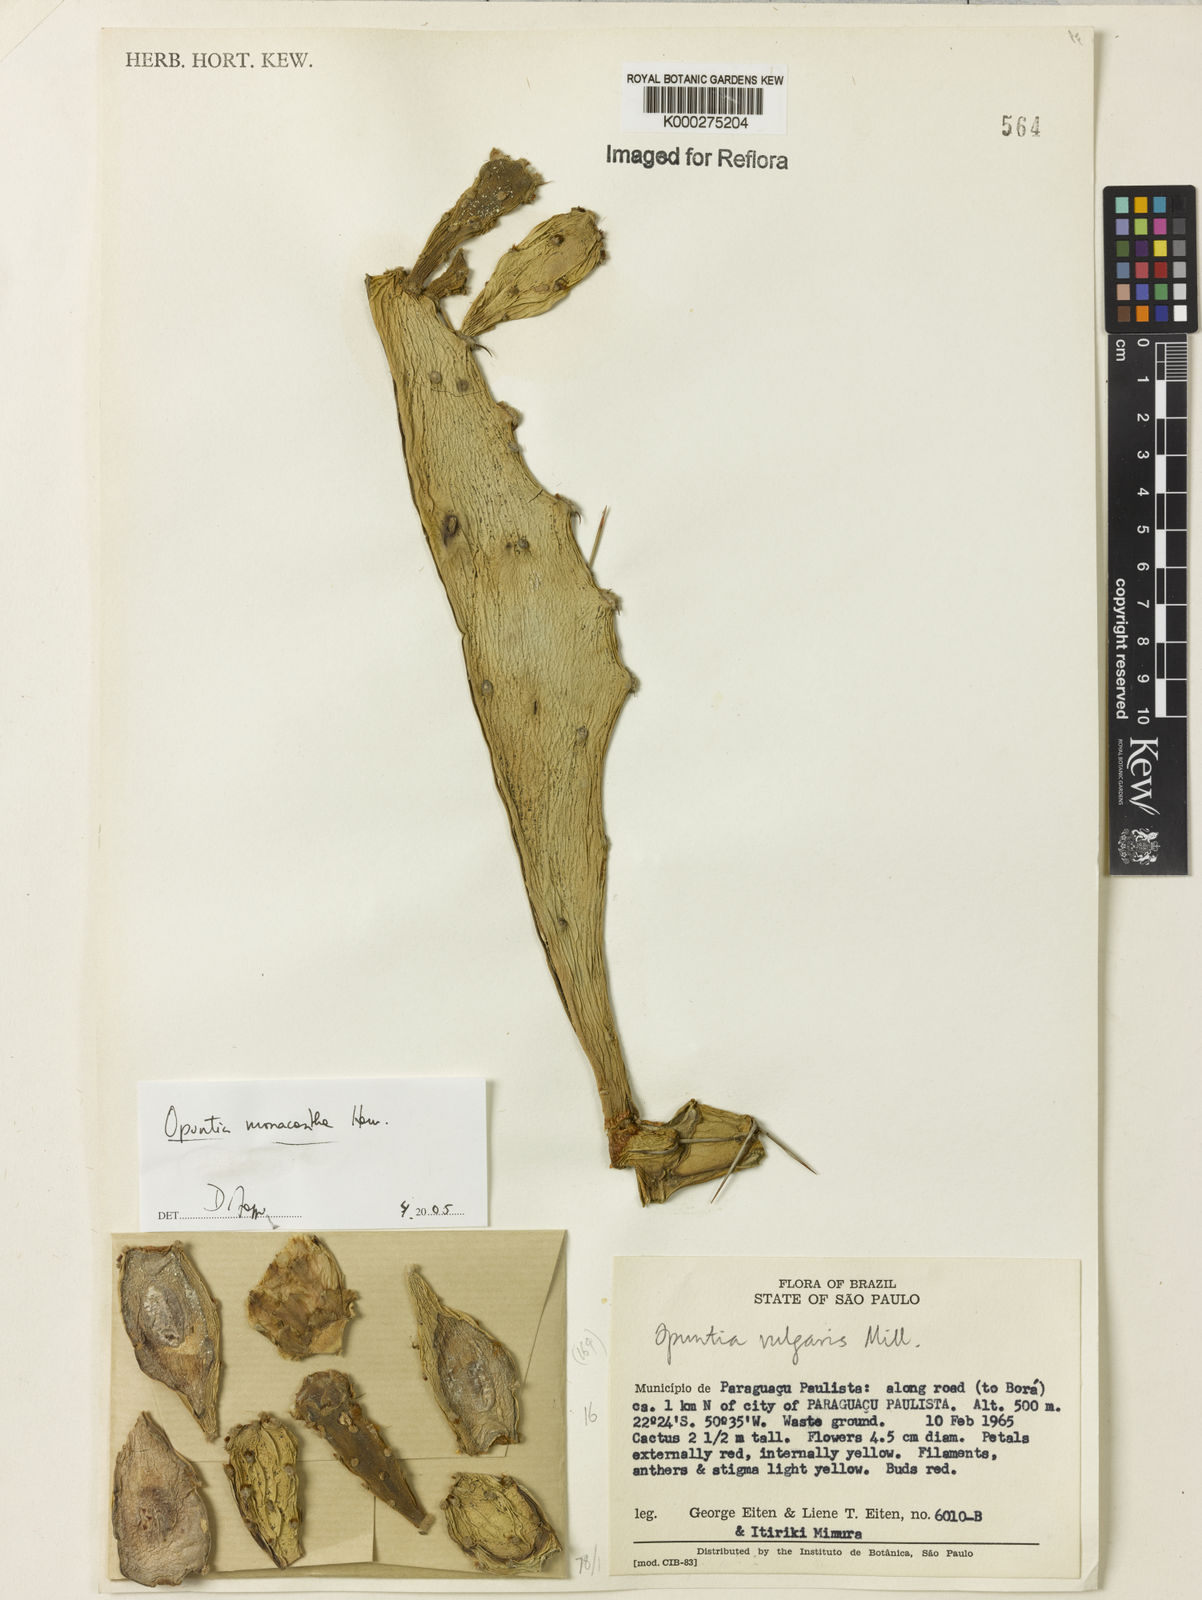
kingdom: Plantae
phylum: Tracheophyta
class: Magnoliopsida
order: Caryophyllales
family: Cactaceae
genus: Opuntia
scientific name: Opuntia monacantha
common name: Common pricklypear
